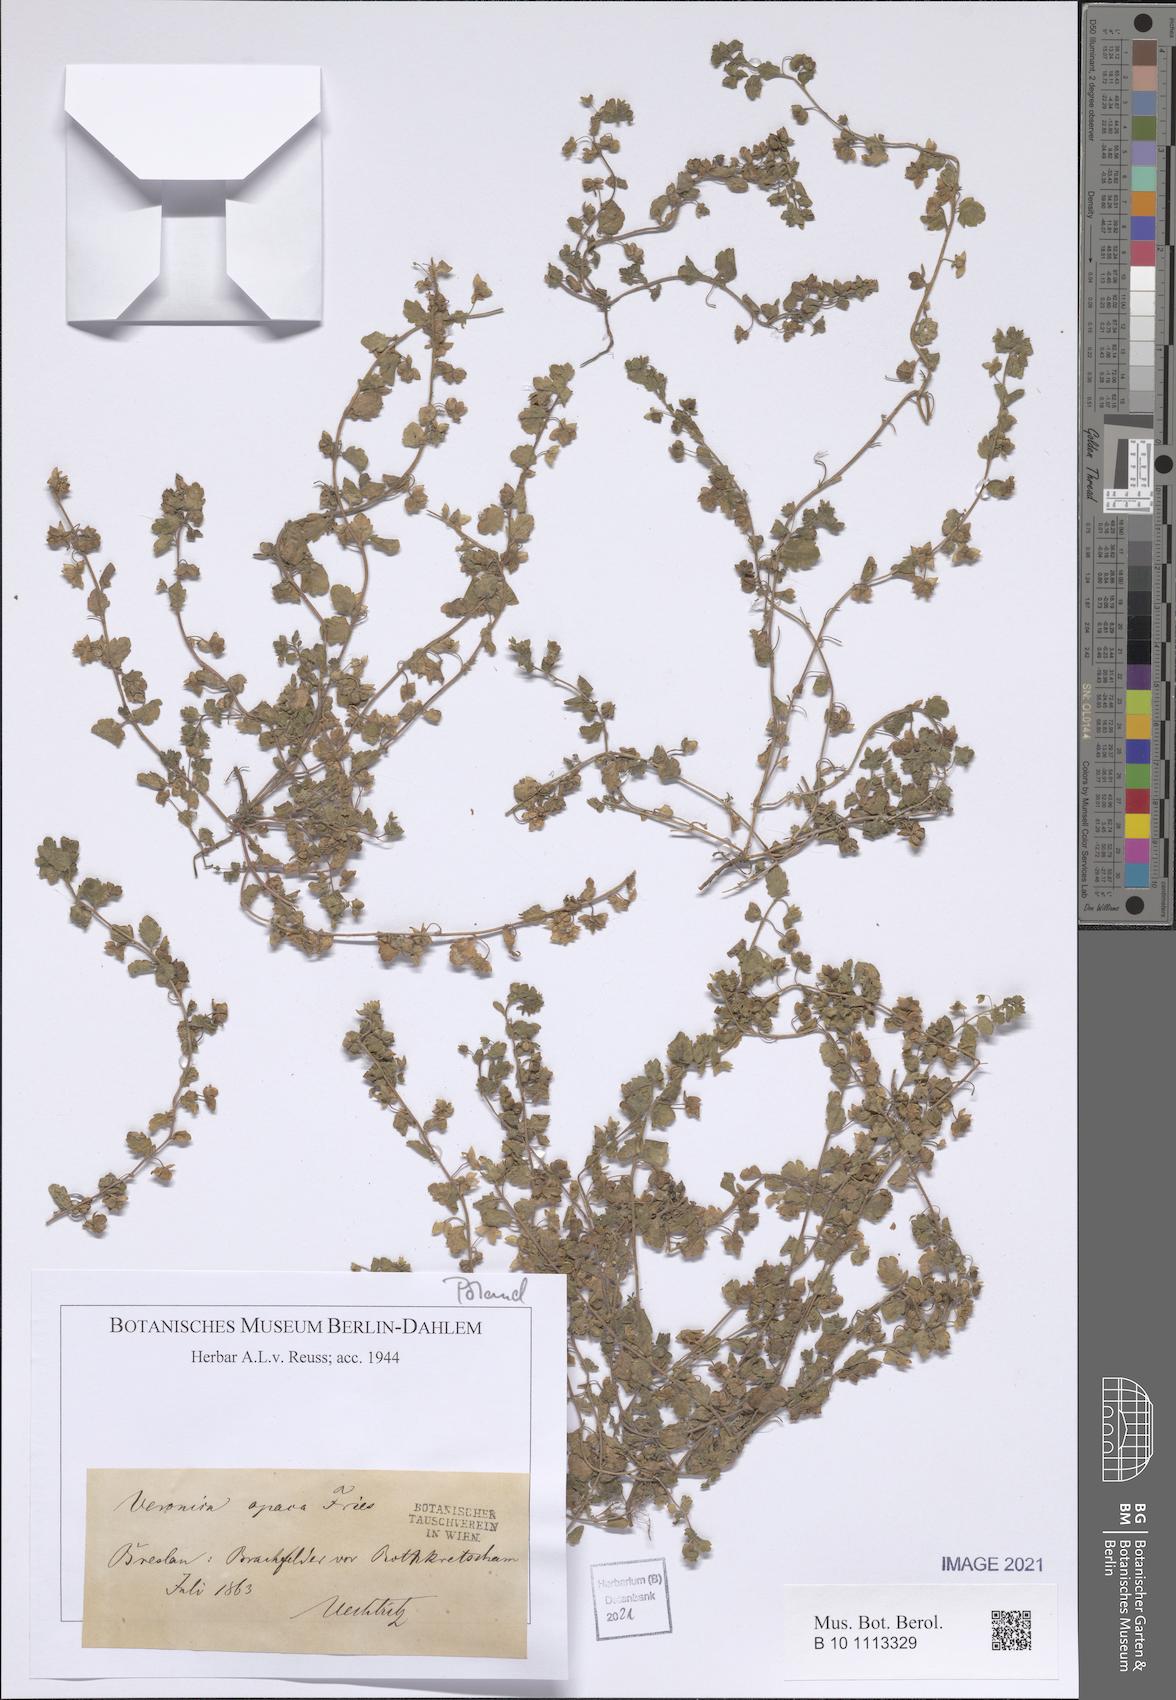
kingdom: Plantae
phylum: Tracheophyta
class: Magnoliopsida
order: Lamiales
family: Plantaginaceae
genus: Veronica
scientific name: Veronica opaca
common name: Dark speedwell
